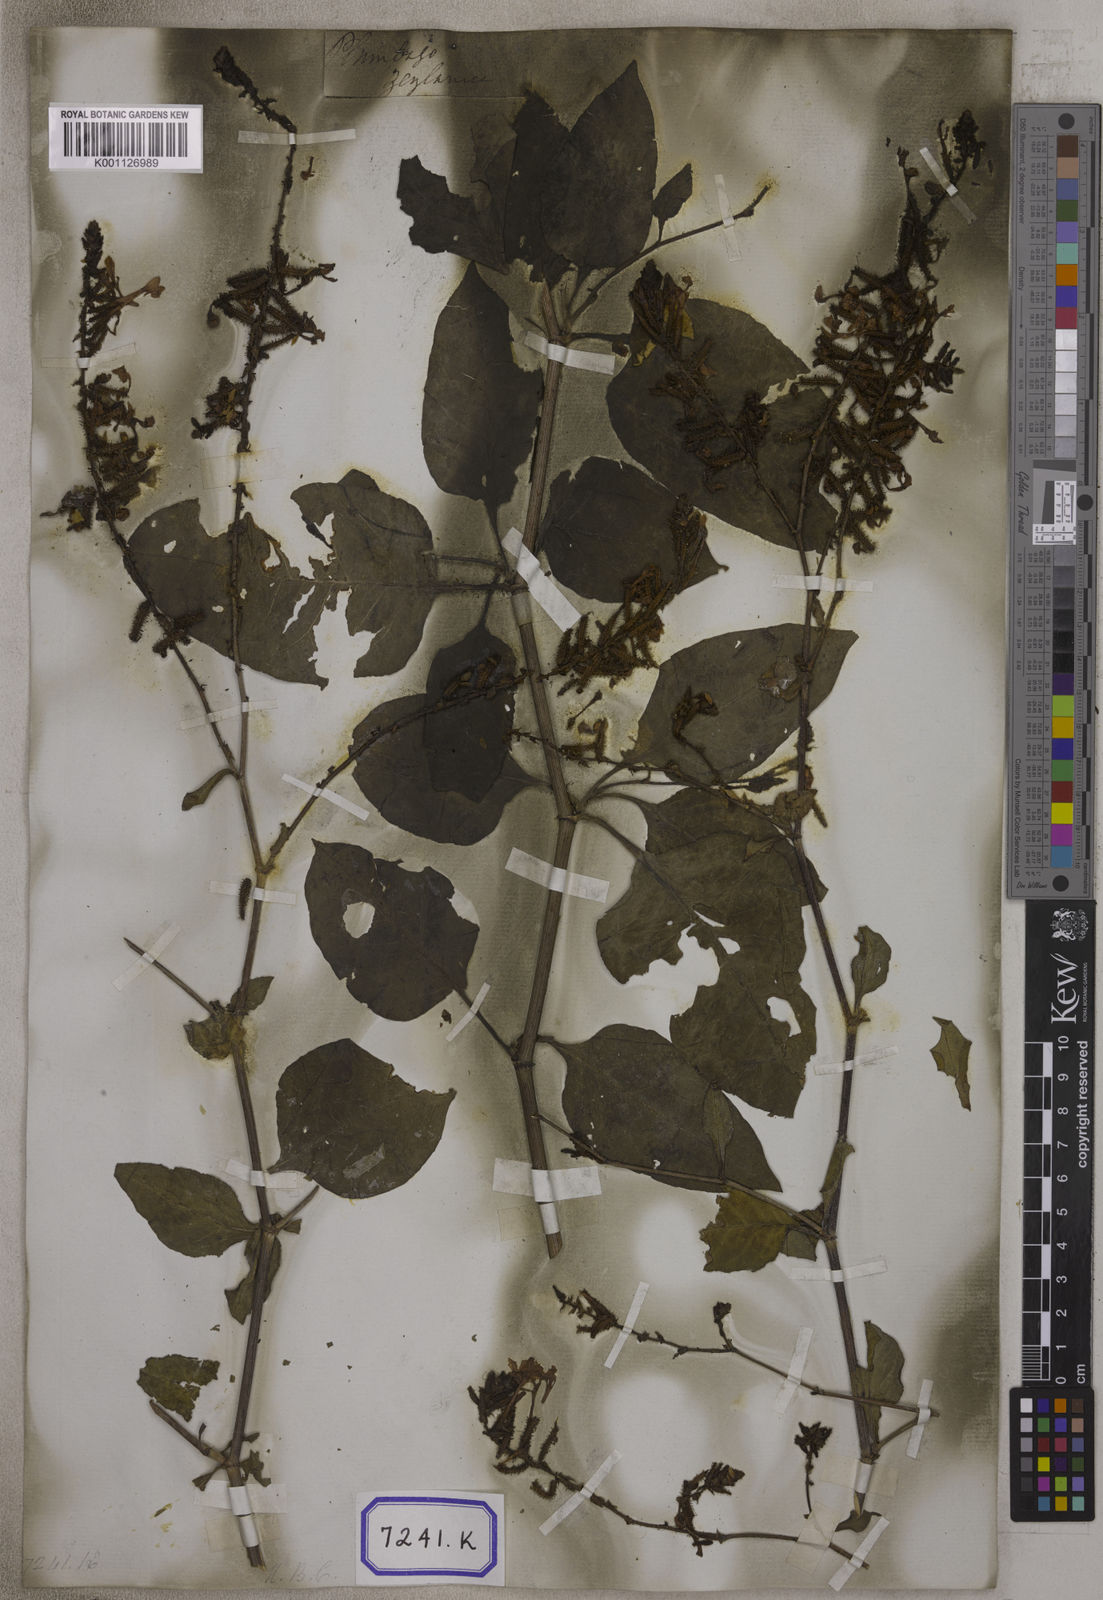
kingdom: Plantae
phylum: Tracheophyta
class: Magnoliopsida
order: Caryophyllales
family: Plumbaginaceae
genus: Plumbago
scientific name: Plumbago zeylanica
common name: Doctorbush
